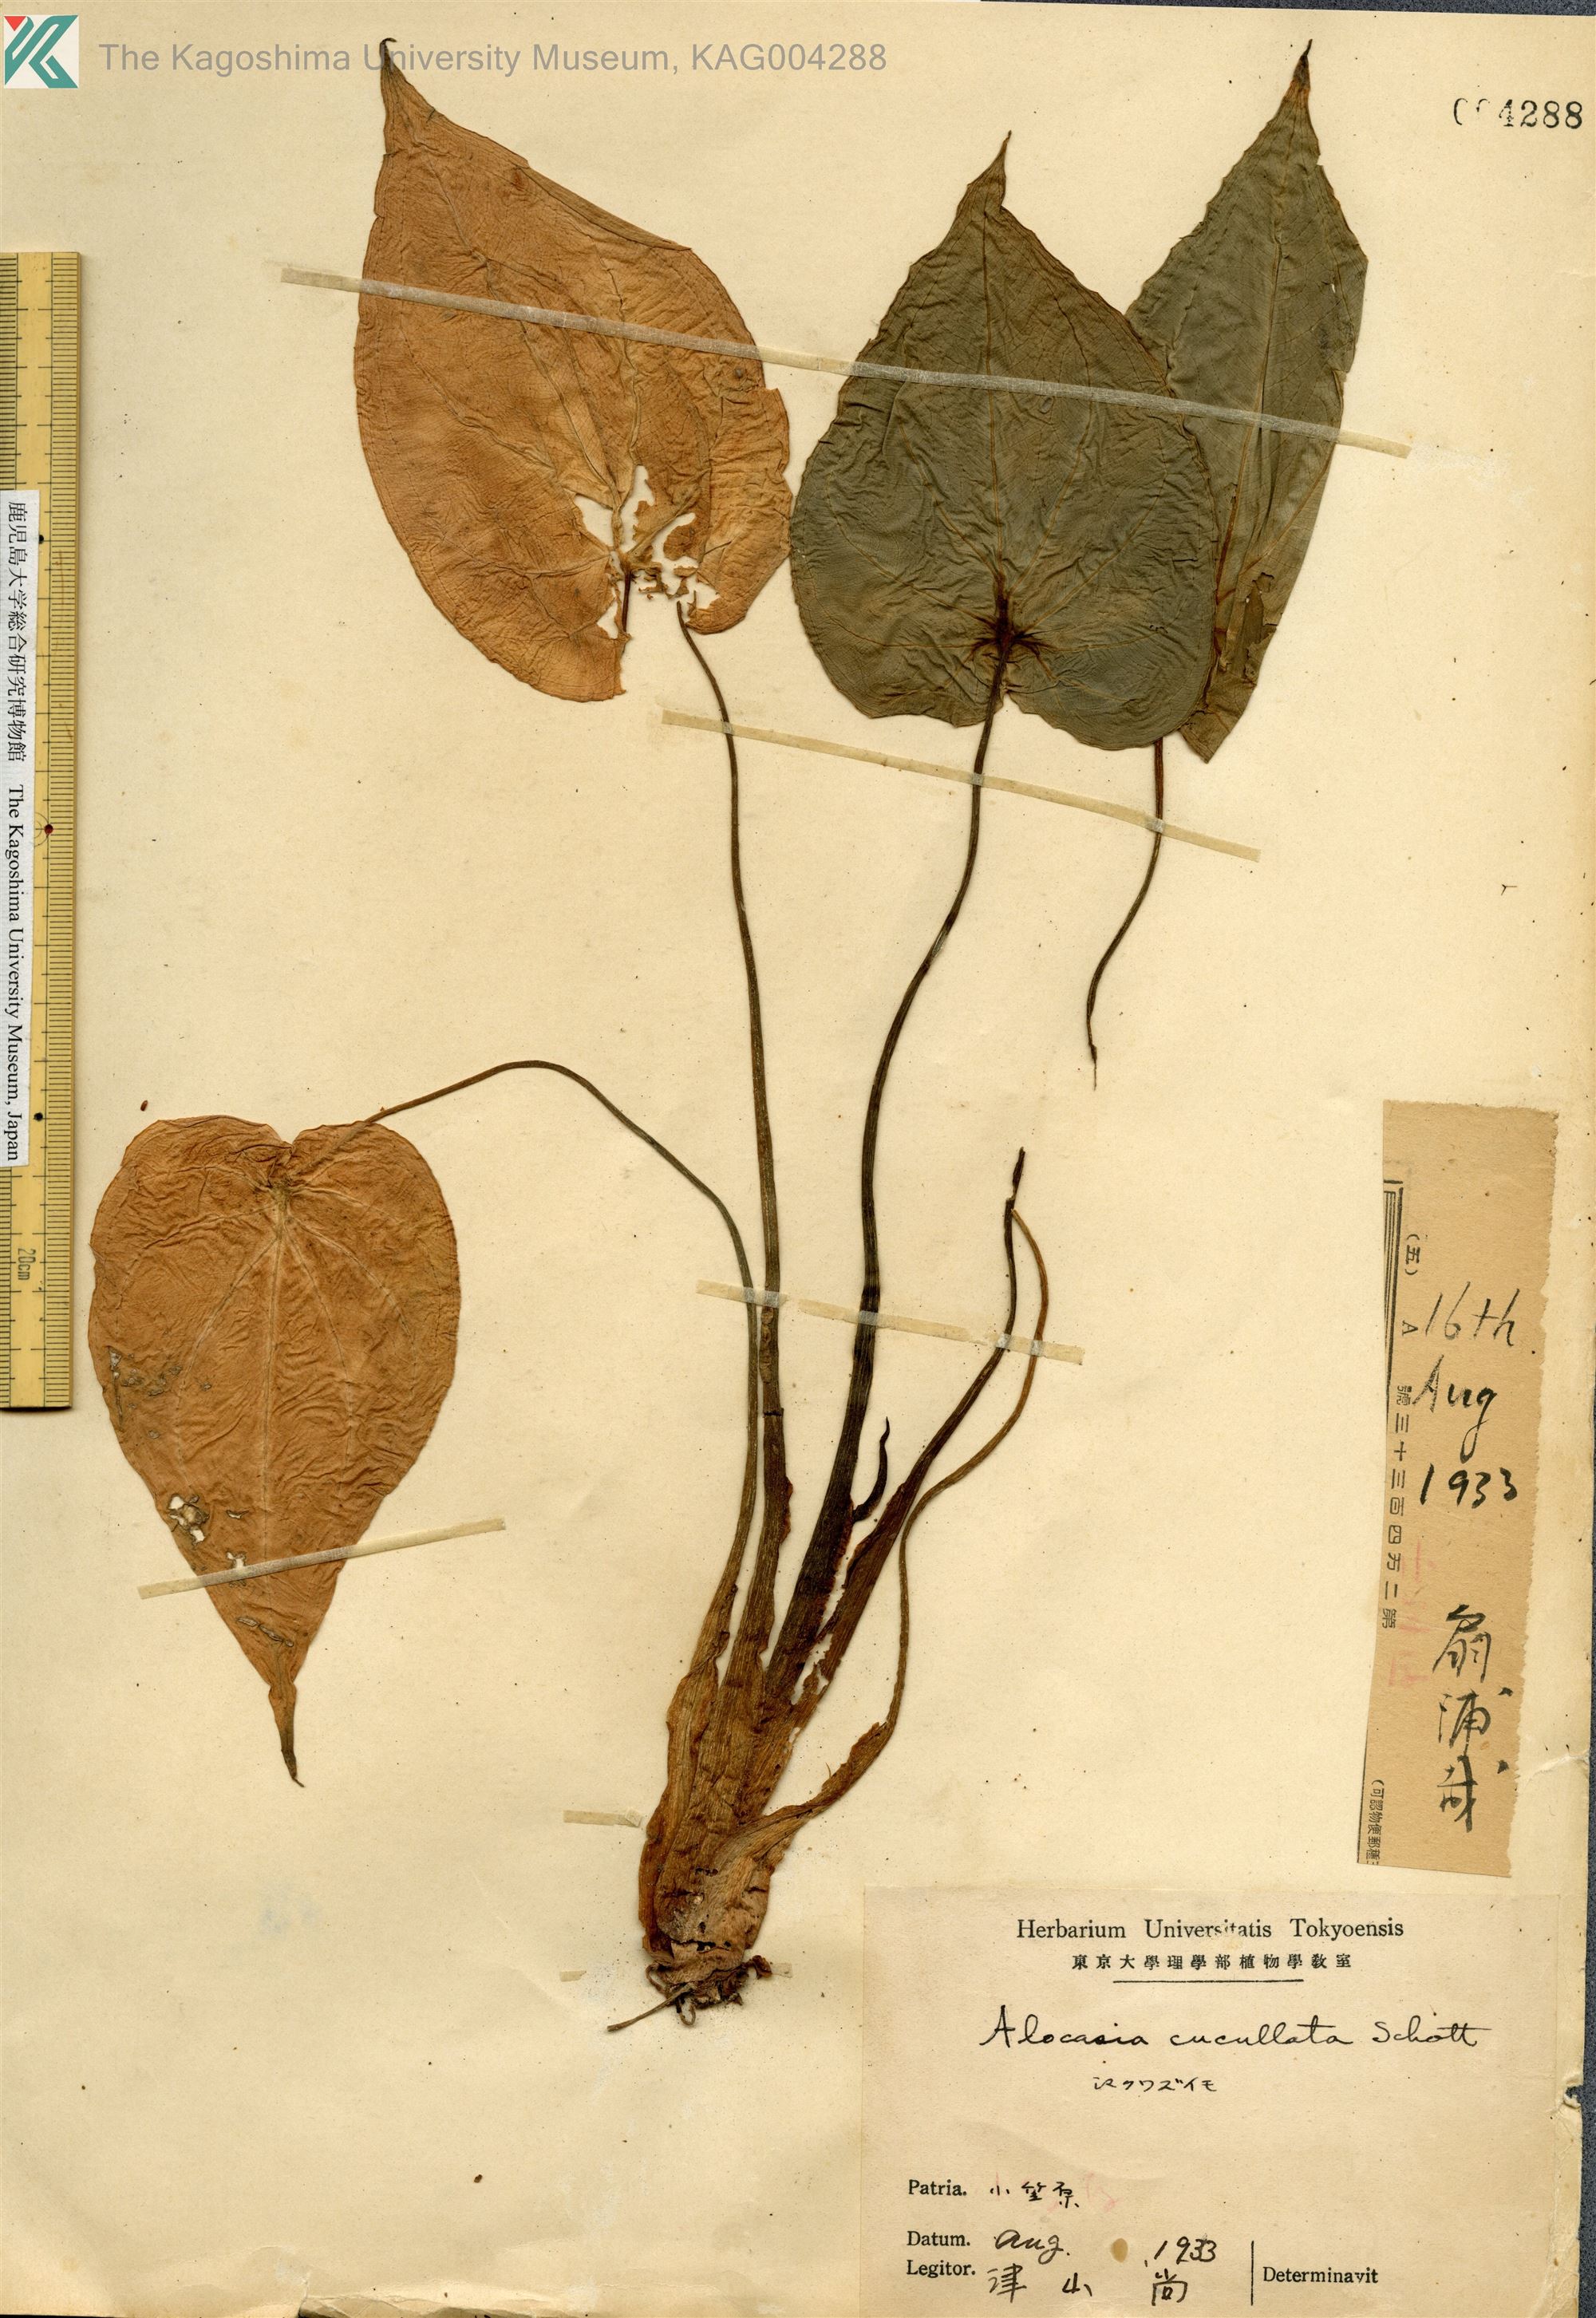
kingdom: Plantae
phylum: Tracheophyta
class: Liliopsida
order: Alismatales
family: Araceae
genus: Alocasia
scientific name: Alocasia cucullata
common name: Buddha's hand
